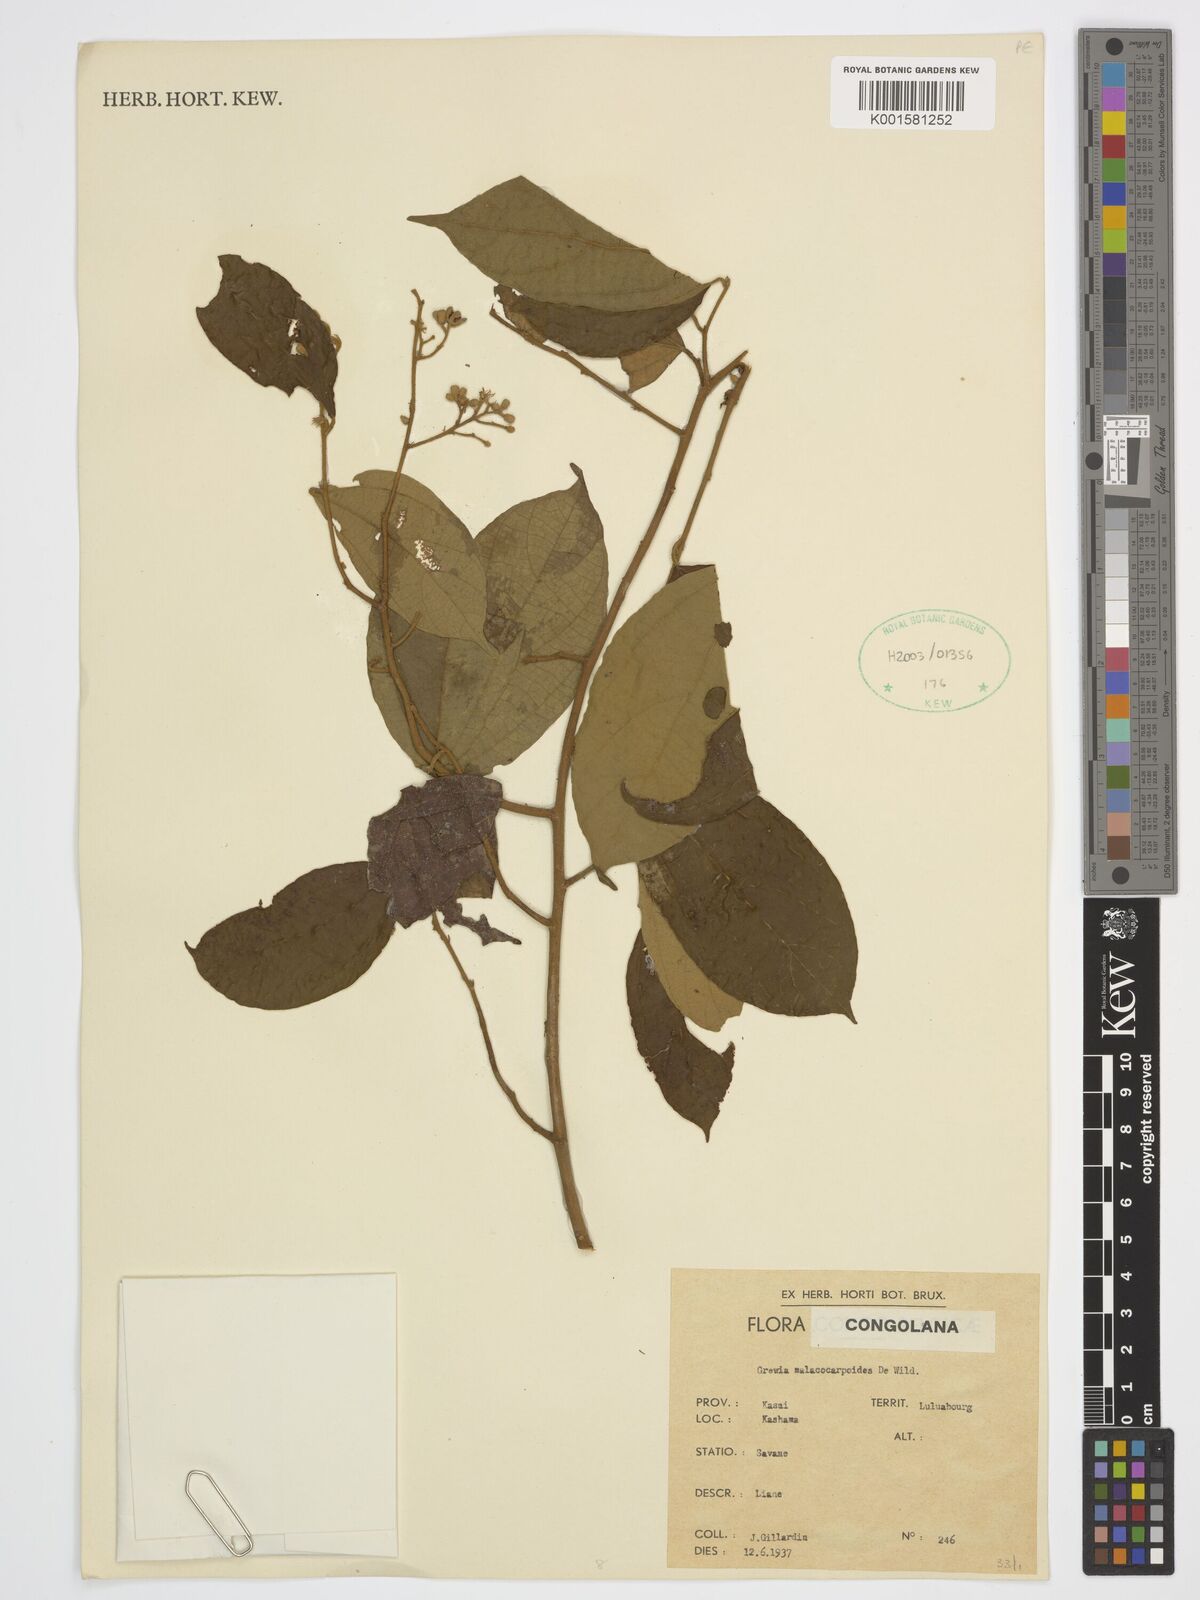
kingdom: Plantae
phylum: Tracheophyta
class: Magnoliopsida
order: Malvales
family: Malvaceae
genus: Microcos
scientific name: Microcos malacocarpa
